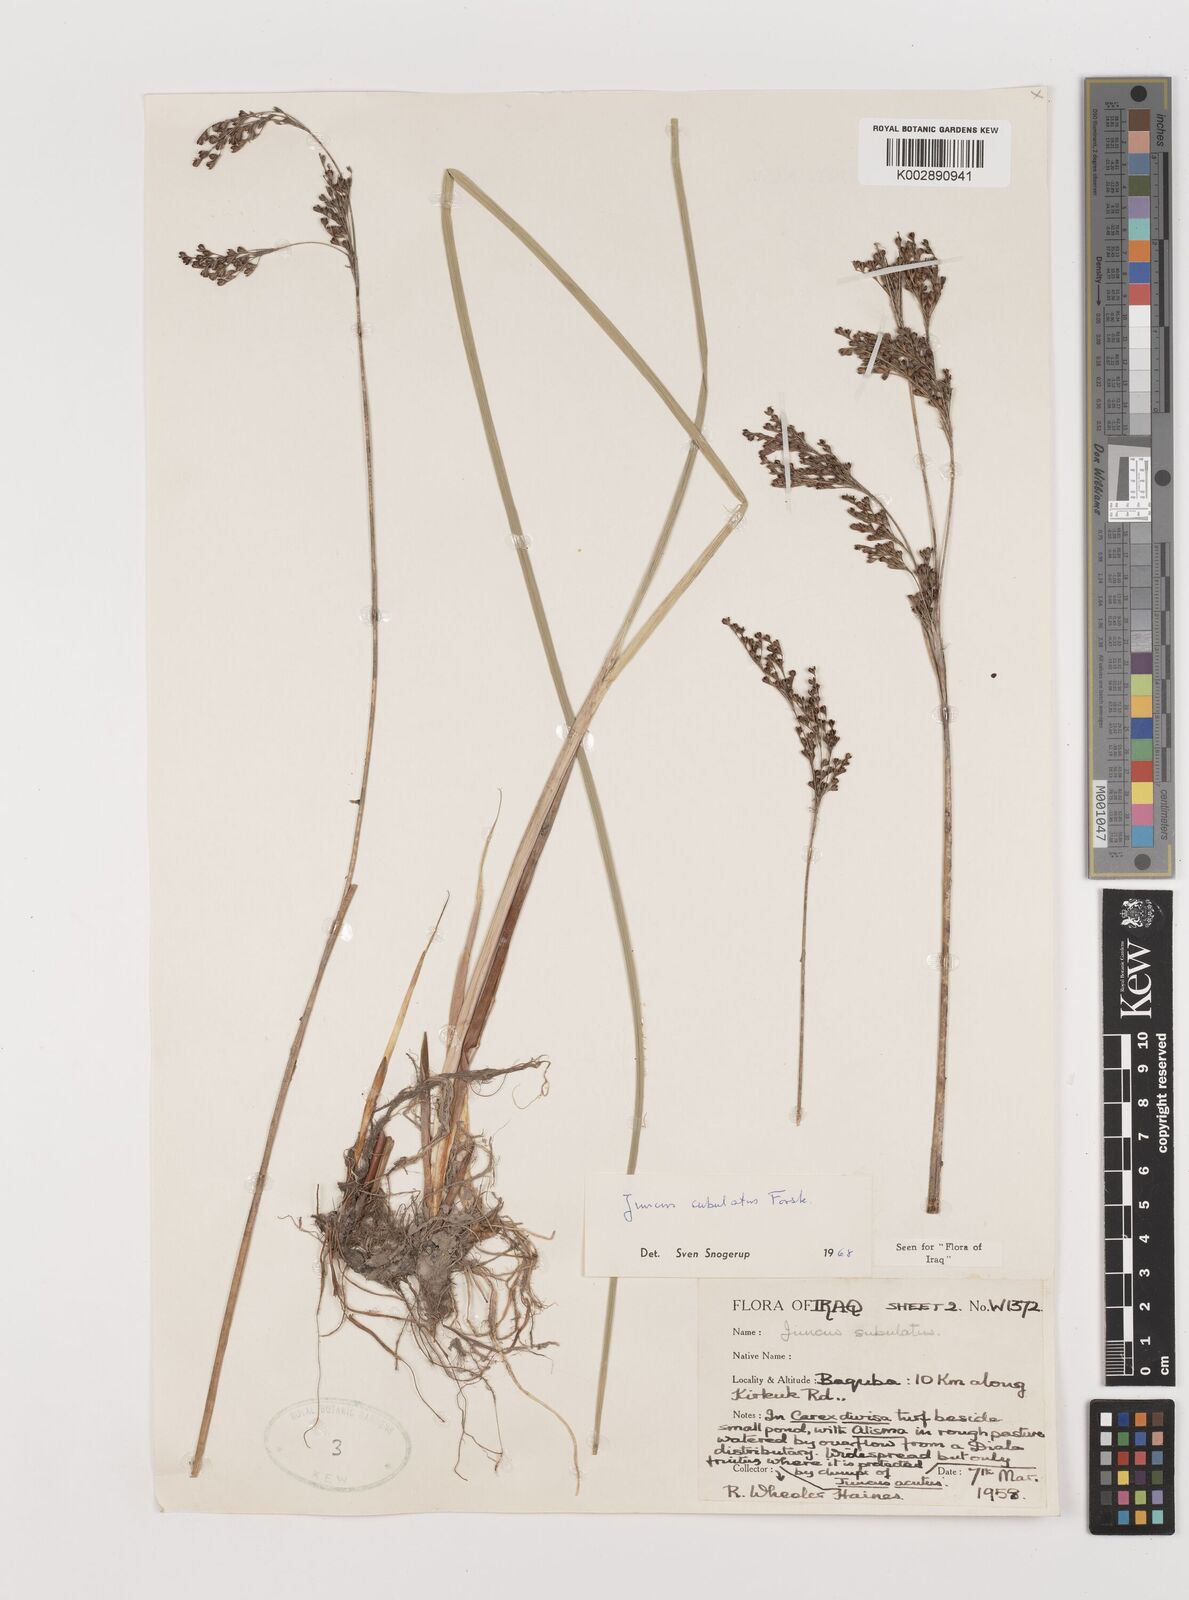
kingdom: Plantae
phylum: Tracheophyta
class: Liliopsida
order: Poales
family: Juncaceae
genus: Juncus
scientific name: Juncus subulatus
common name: Somerset rush
